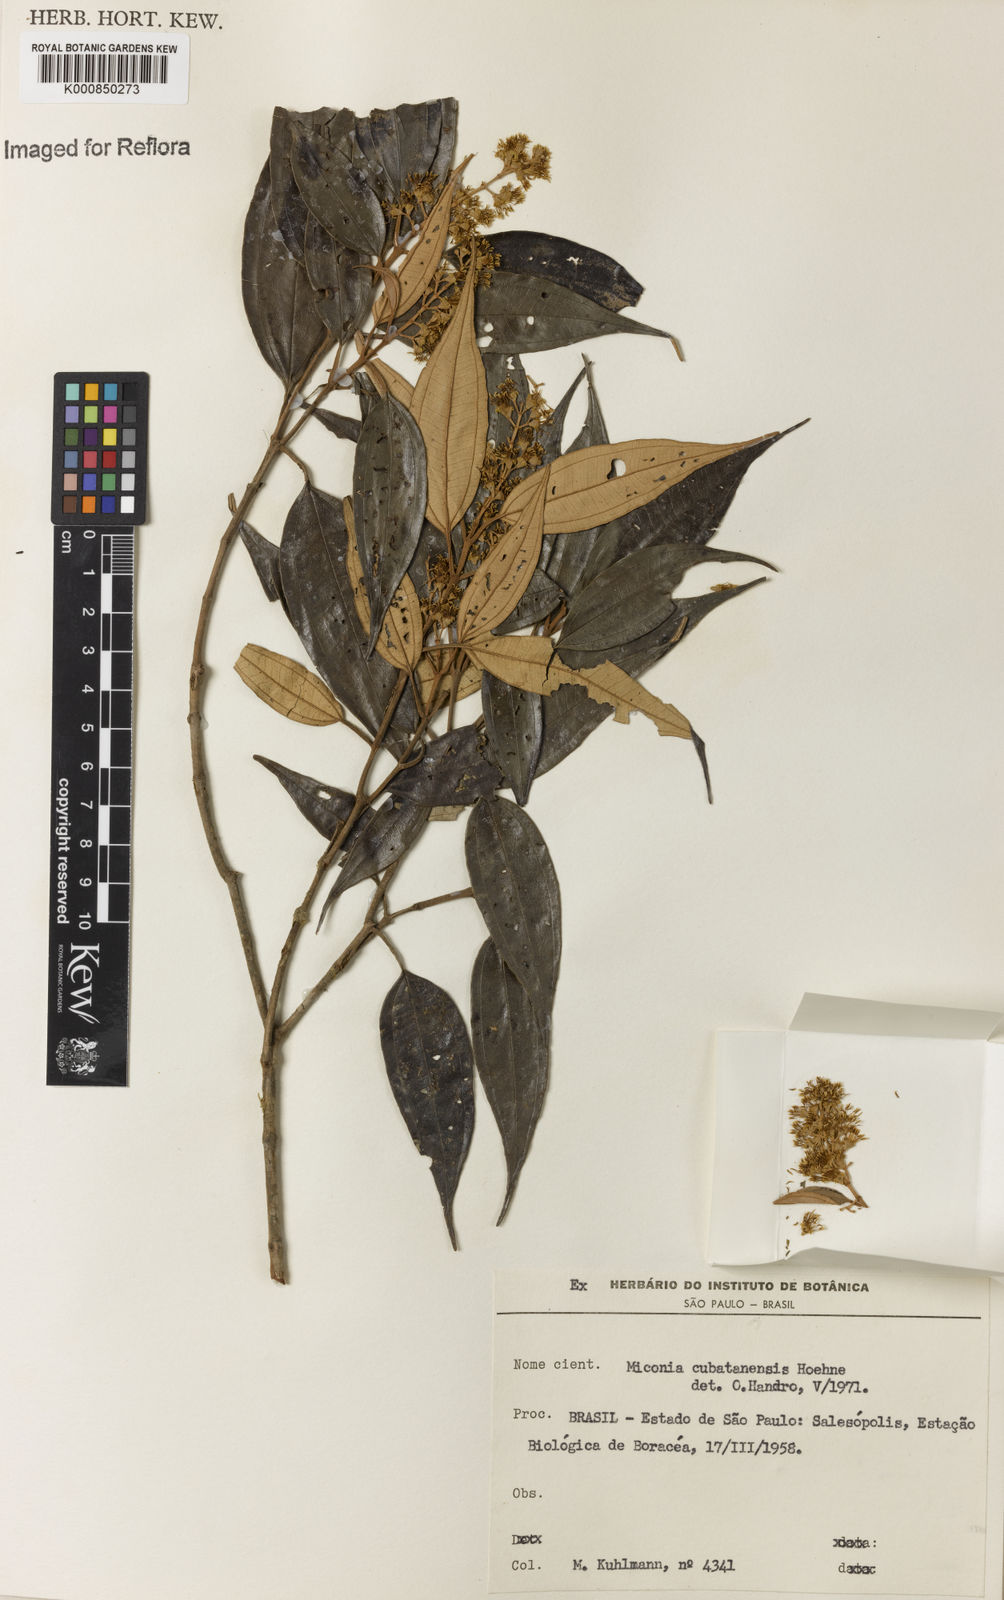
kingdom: Plantae
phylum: Tracheophyta
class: Magnoliopsida
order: Myrtales
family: Melastomataceae
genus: Miconia
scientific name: Miconia cubatanensis
